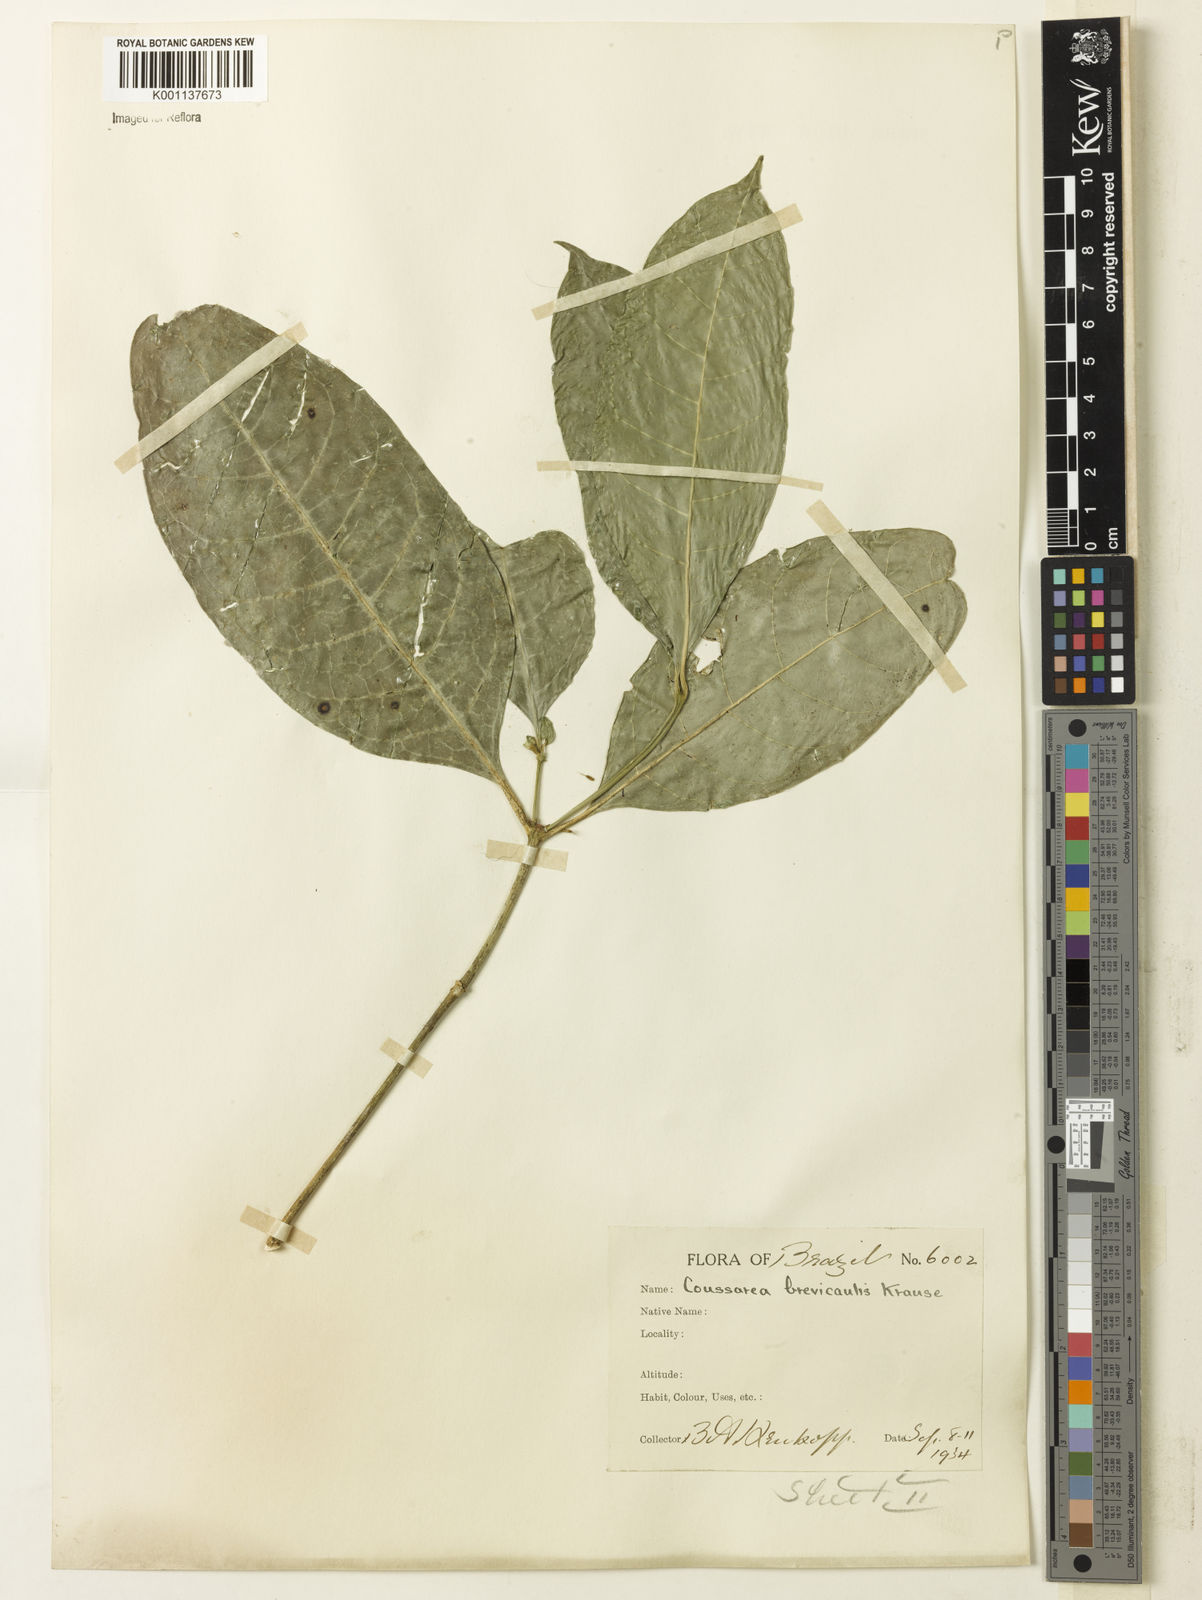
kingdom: Plantae
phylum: Tracheophyta
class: Magnoliopsida
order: Gentianales
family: Rubiaceae
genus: Coussarea
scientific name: Coussarea
